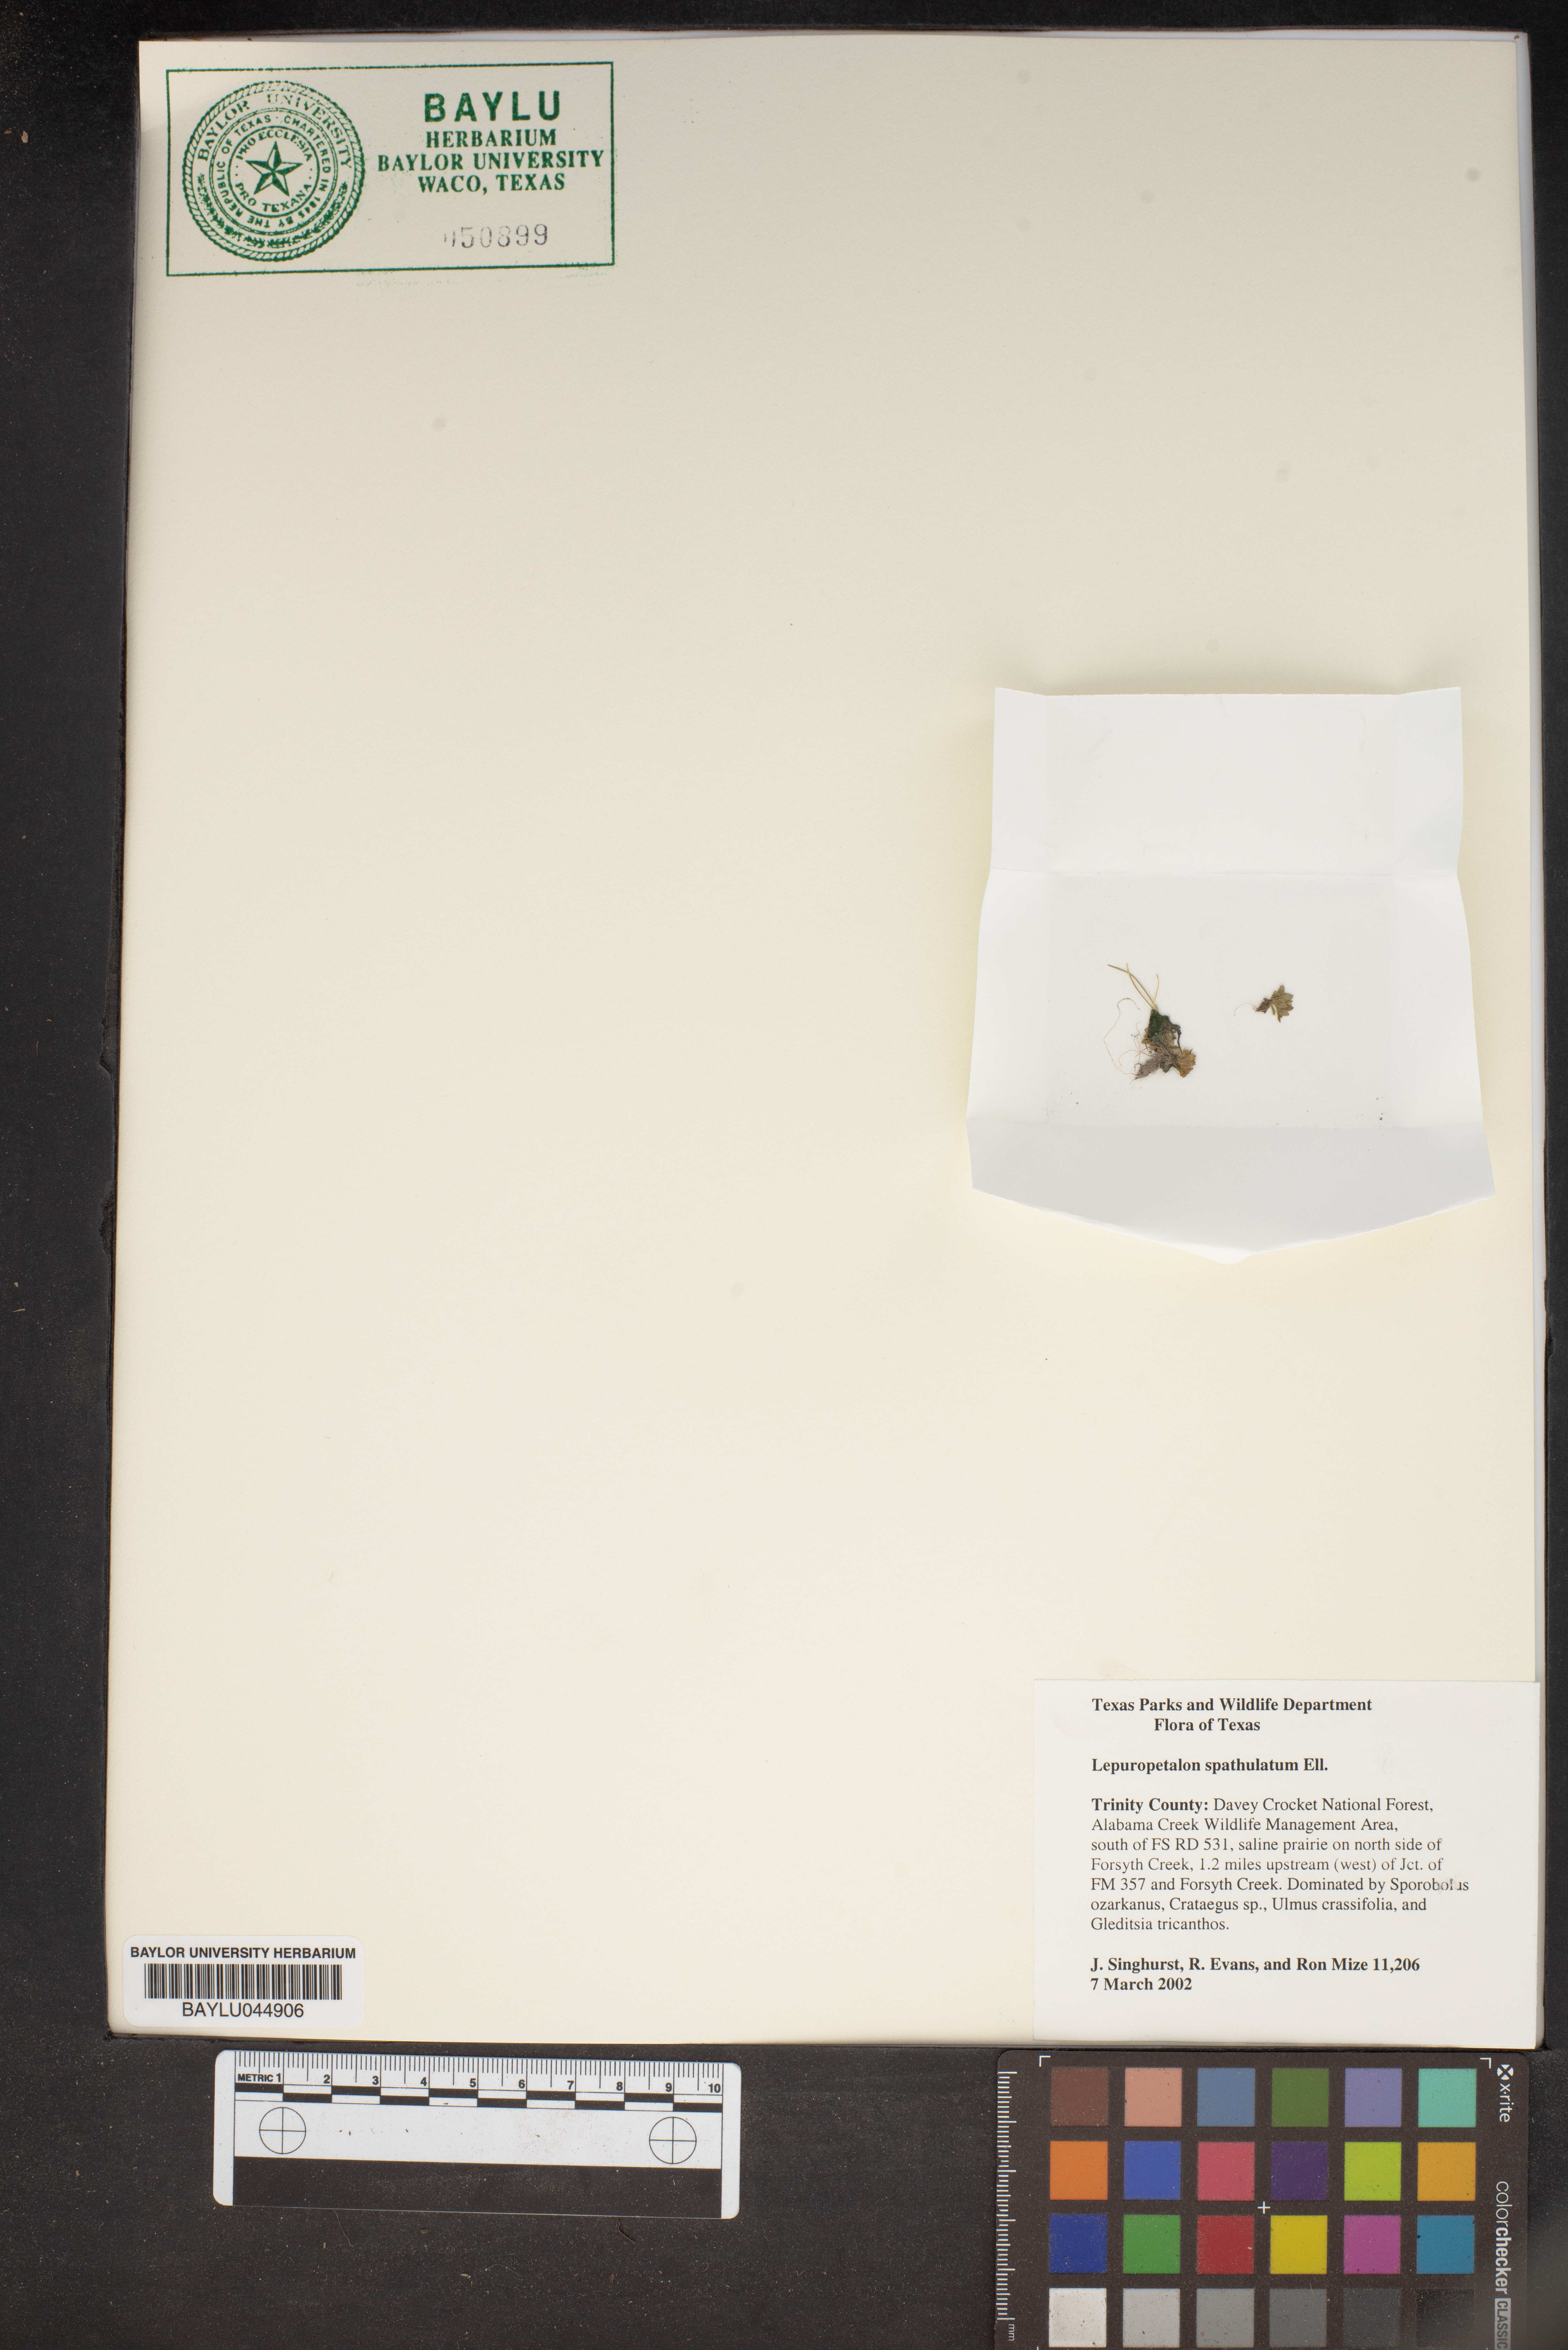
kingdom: Plantae
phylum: Tracheophyta
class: Magnoliopsida
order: Celastrales
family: Parnassiaceae
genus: Lepuropetalon
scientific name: Lepuropetalon spathulatum
